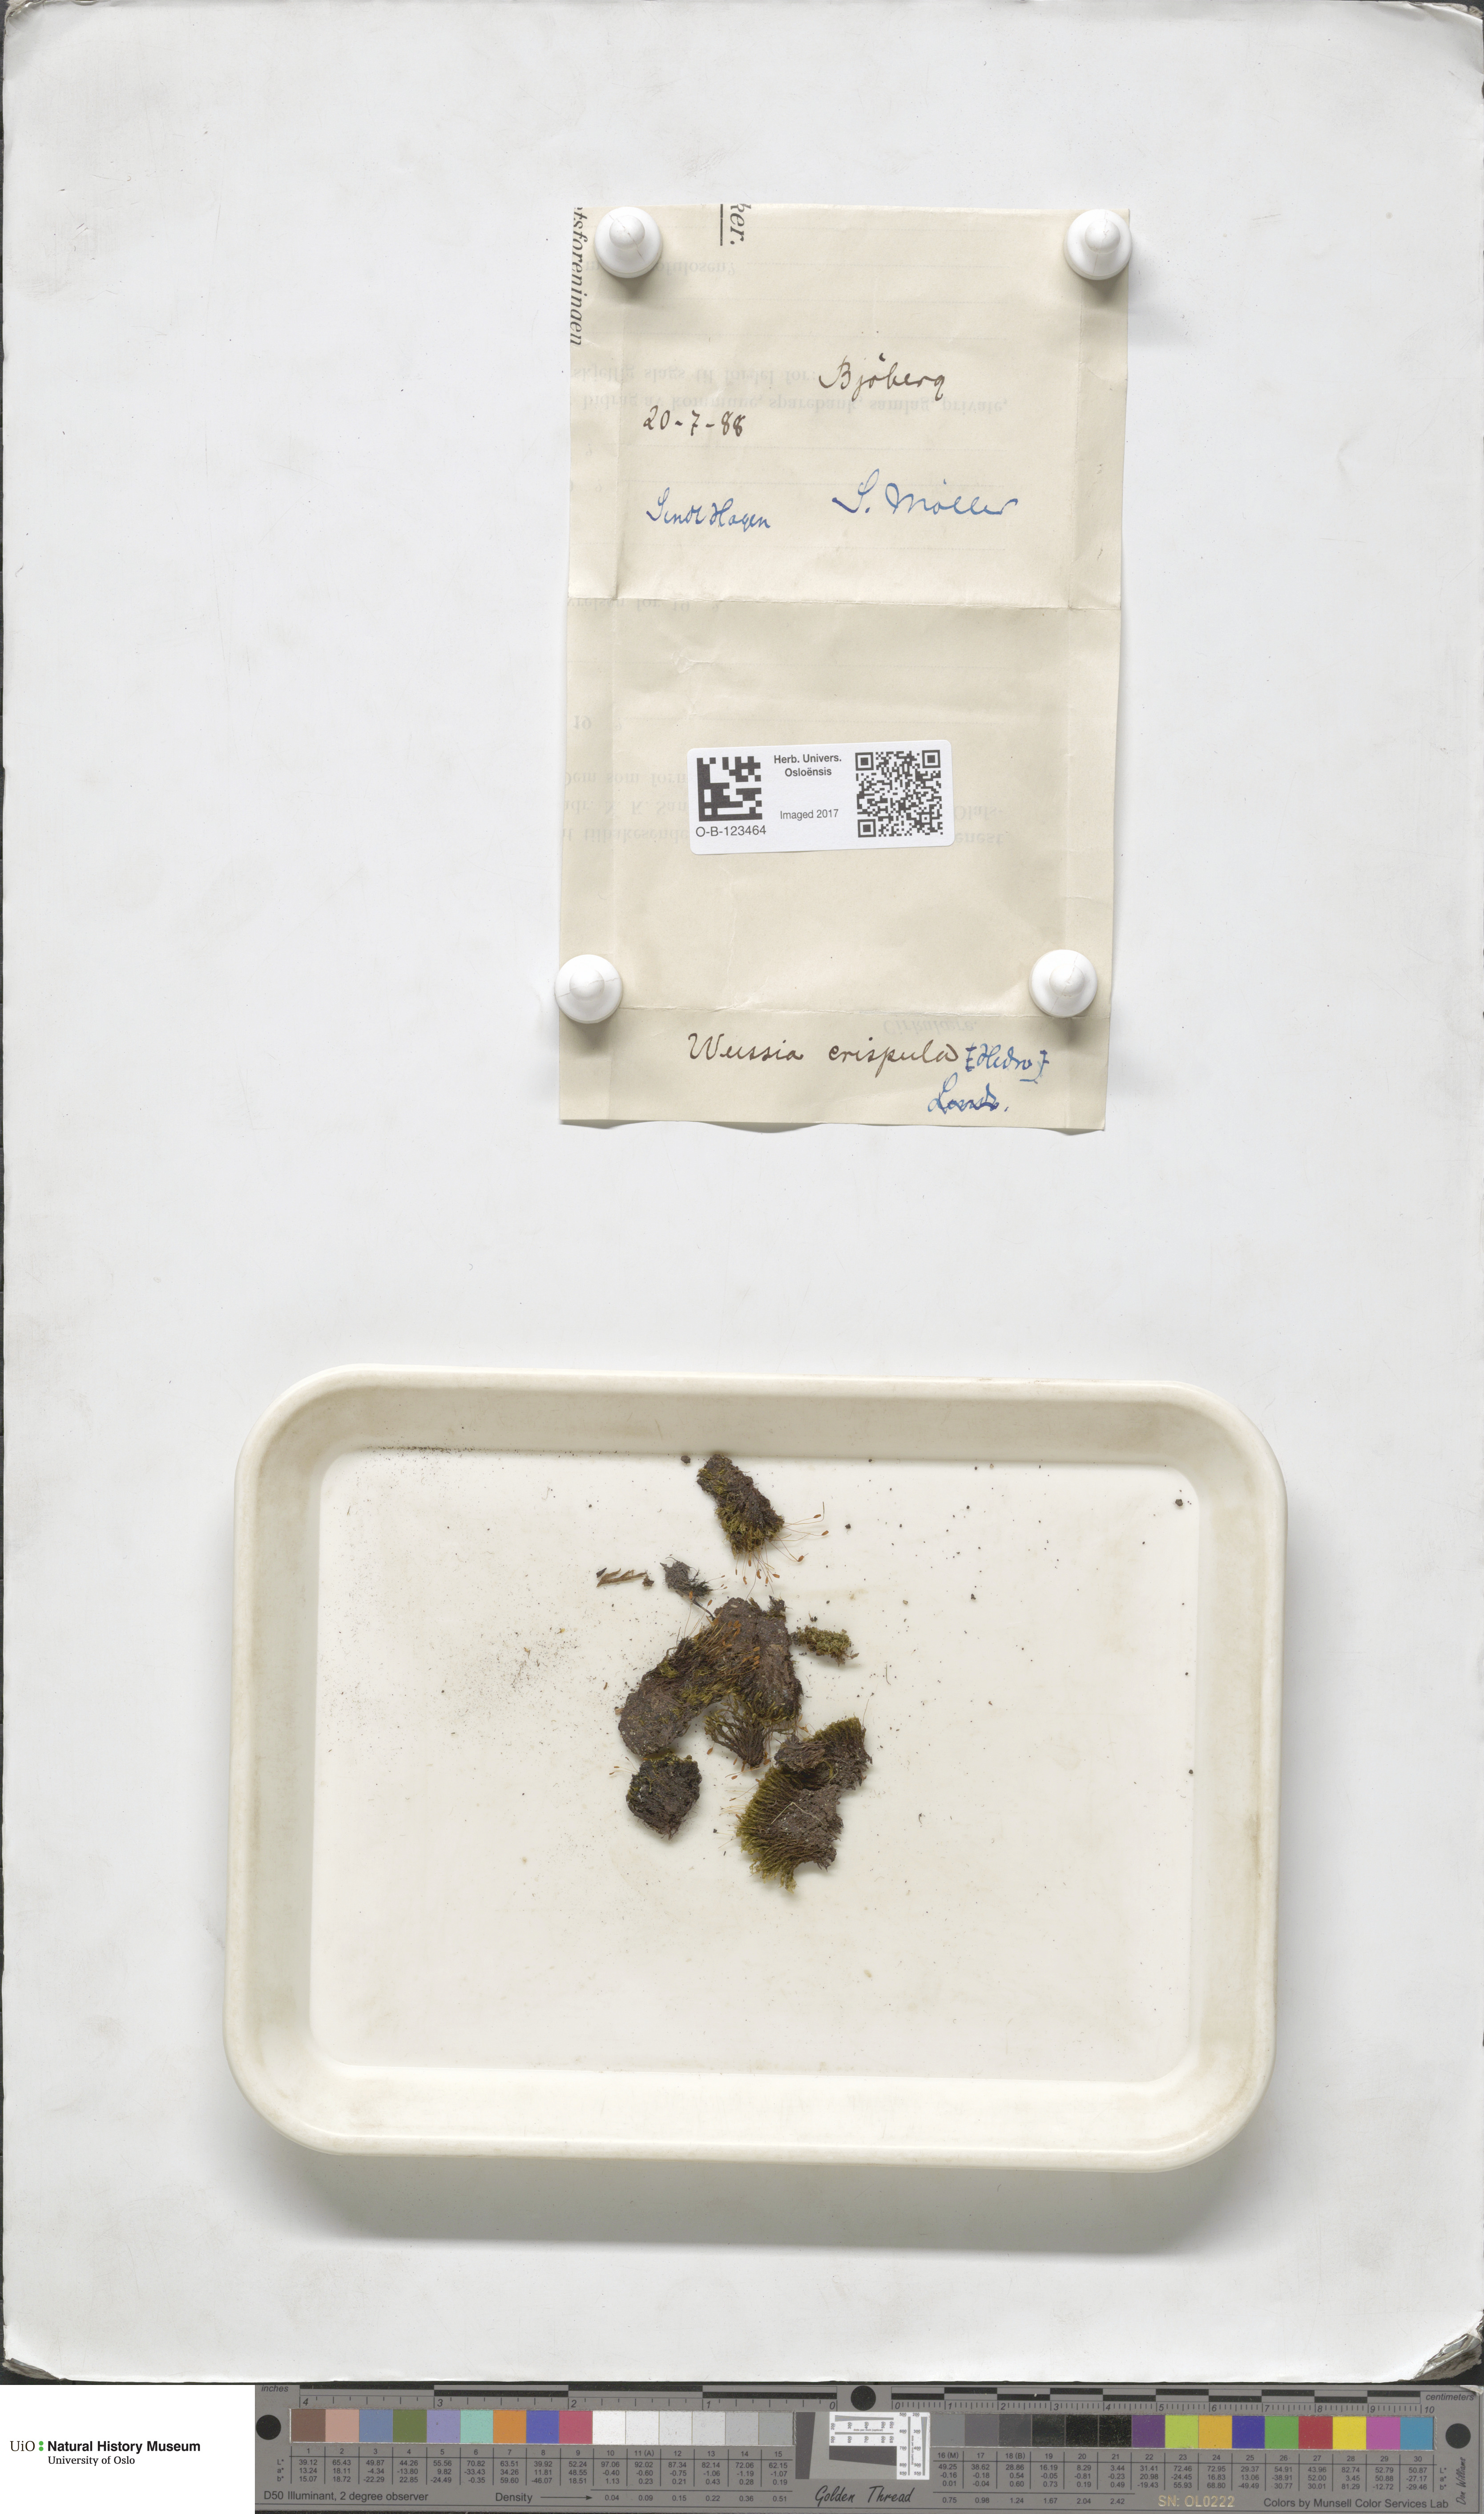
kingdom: Plantae
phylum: Bryophyta
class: Bryopsida
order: Scouleriales
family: Hymenolomataceae
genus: Hymenoloma
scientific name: Hymenoloma crispulum
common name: Mountain pincushion
